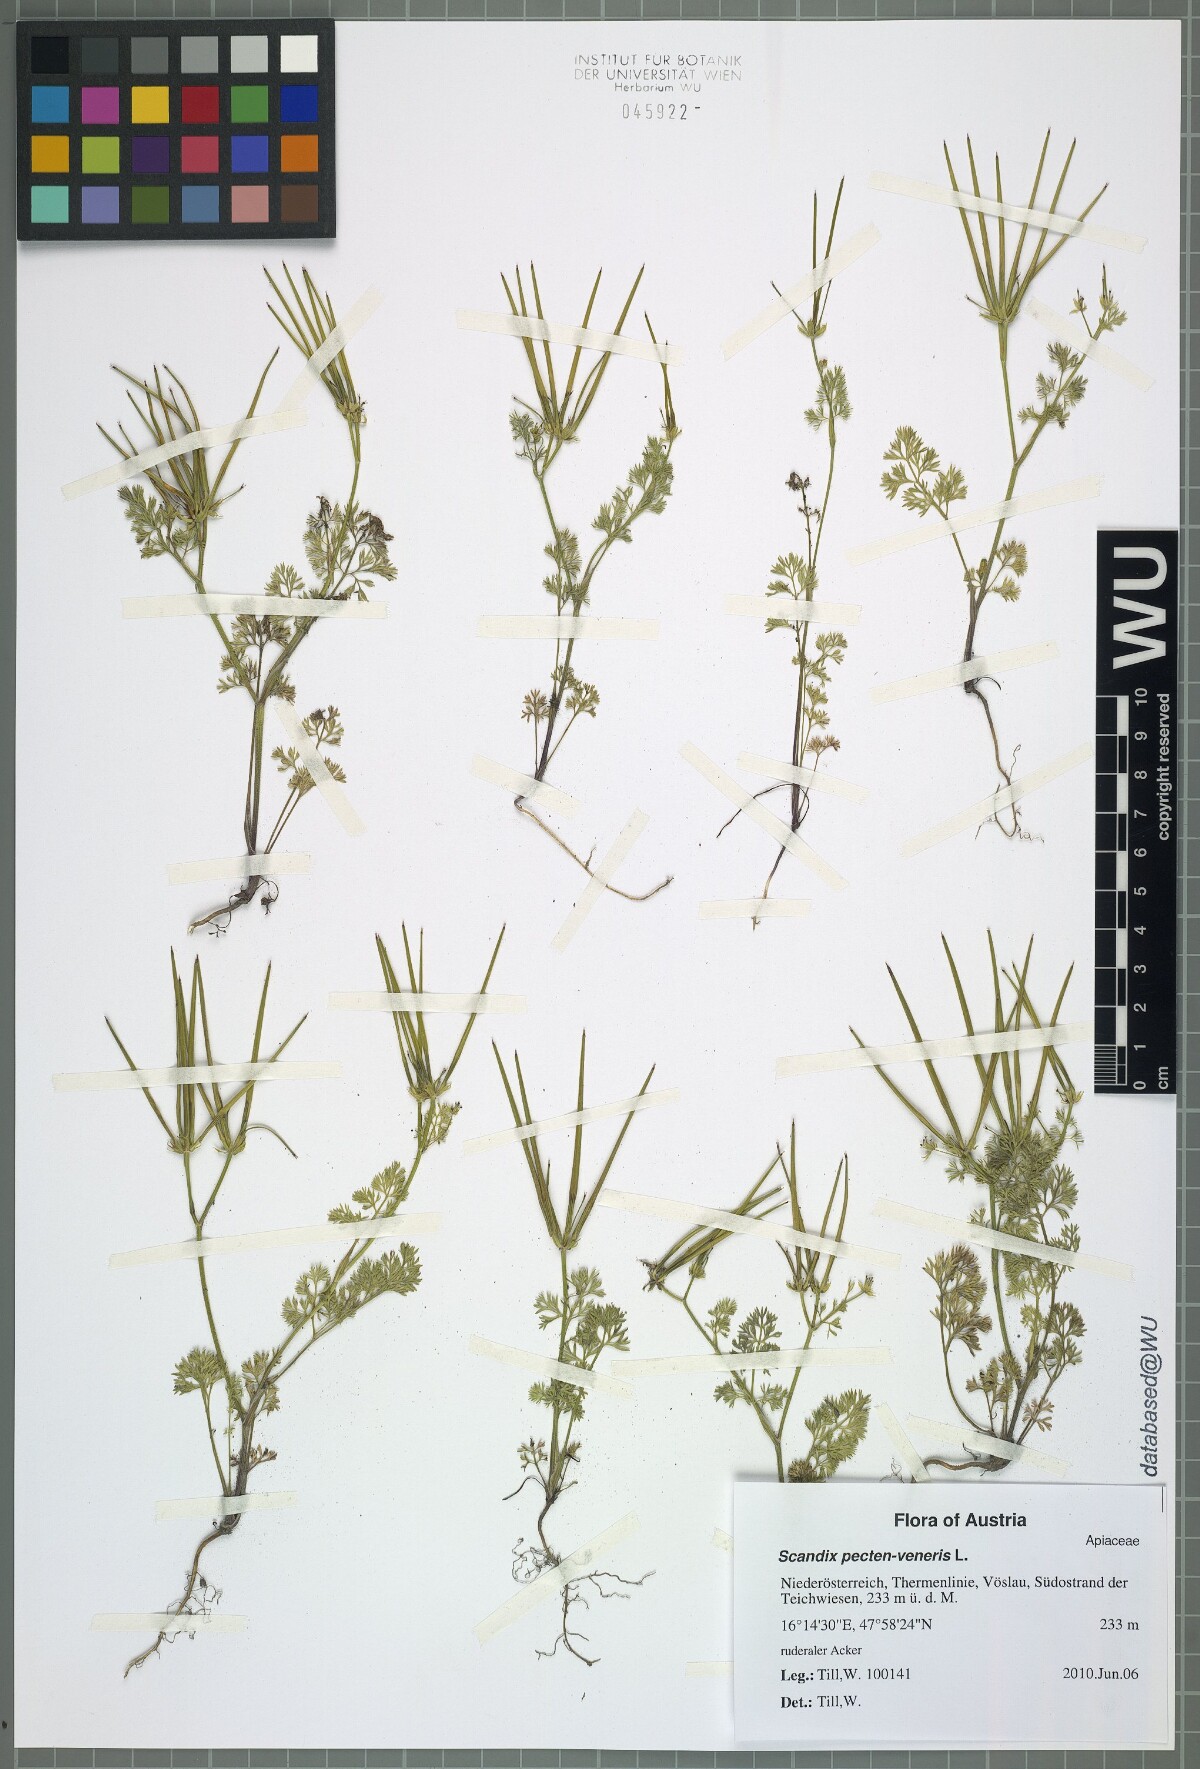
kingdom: Plantae
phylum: Tracheophyta
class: Magnoliopsida
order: Apiales
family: Apiaceae
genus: Scandix
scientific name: Scandix pecten-veneris
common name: Shepherd's-needle
